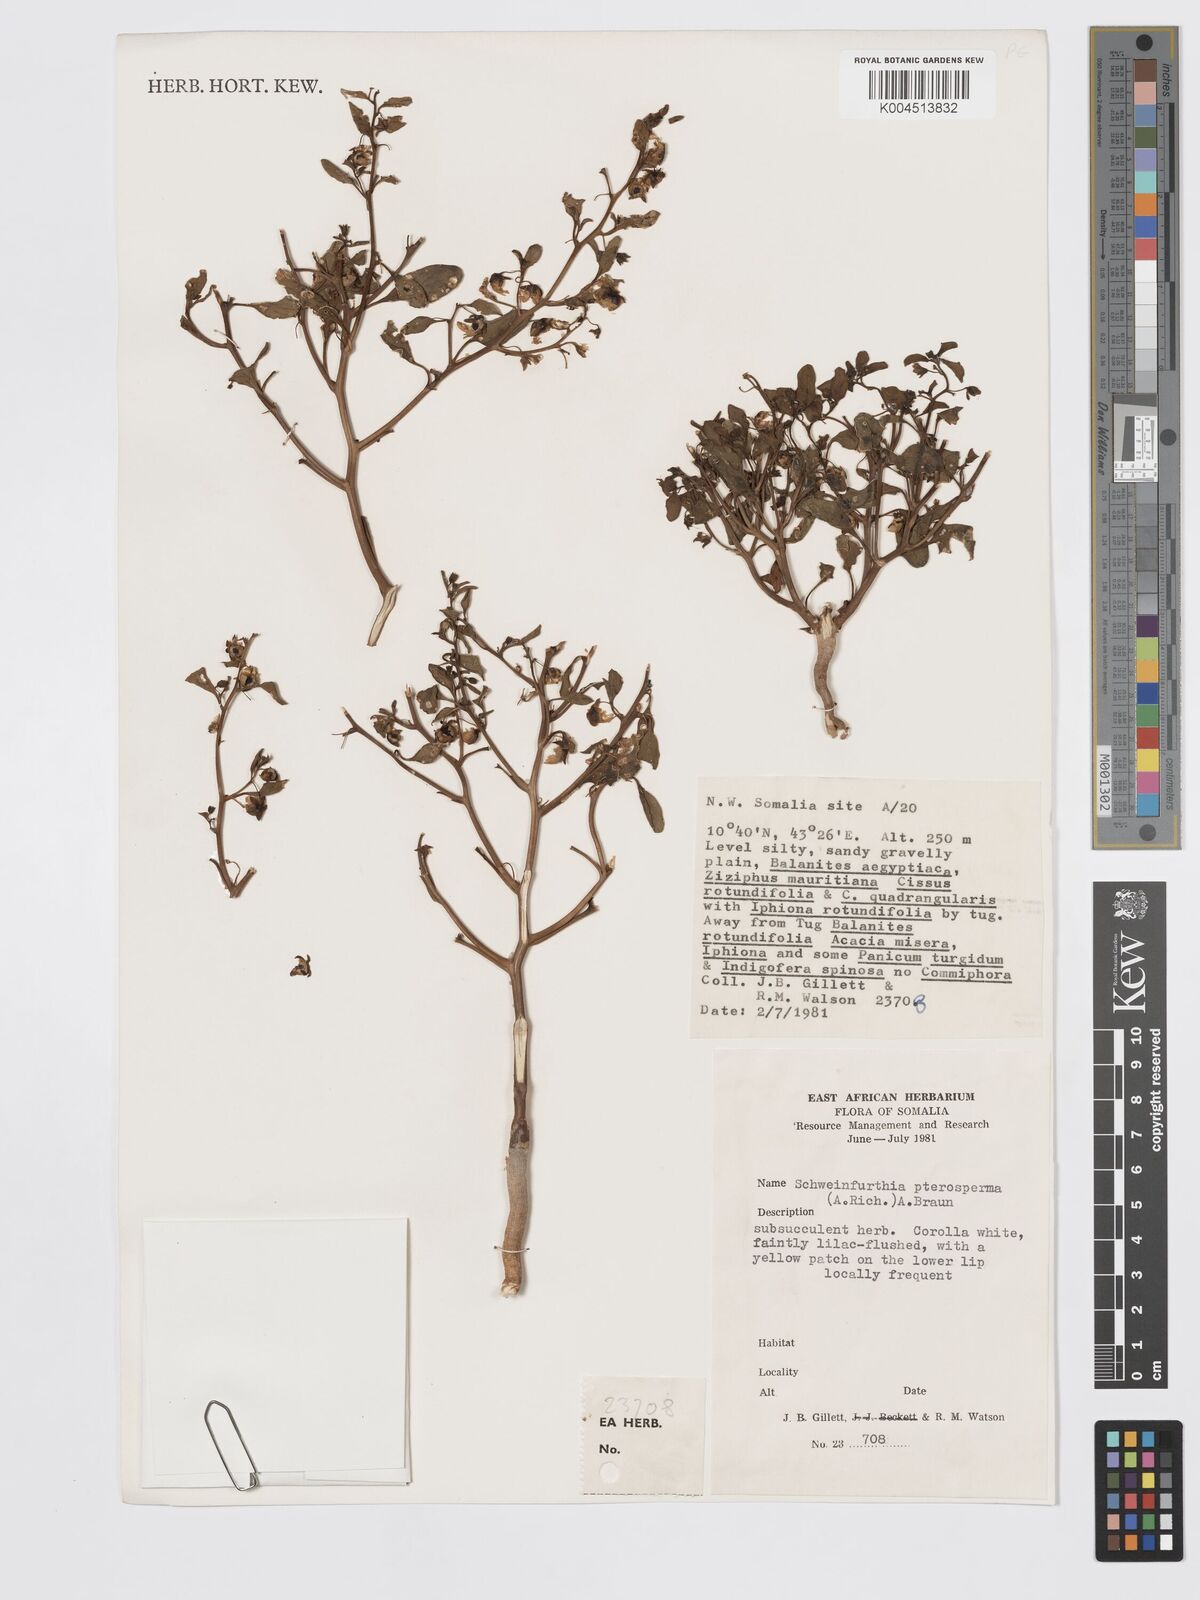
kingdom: Plantae
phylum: Tracheophyta
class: Magnoliopsida
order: Lamiales
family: Plantaginaceae
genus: Schweinfurthia
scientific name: Schweinfurthia pterosperma
